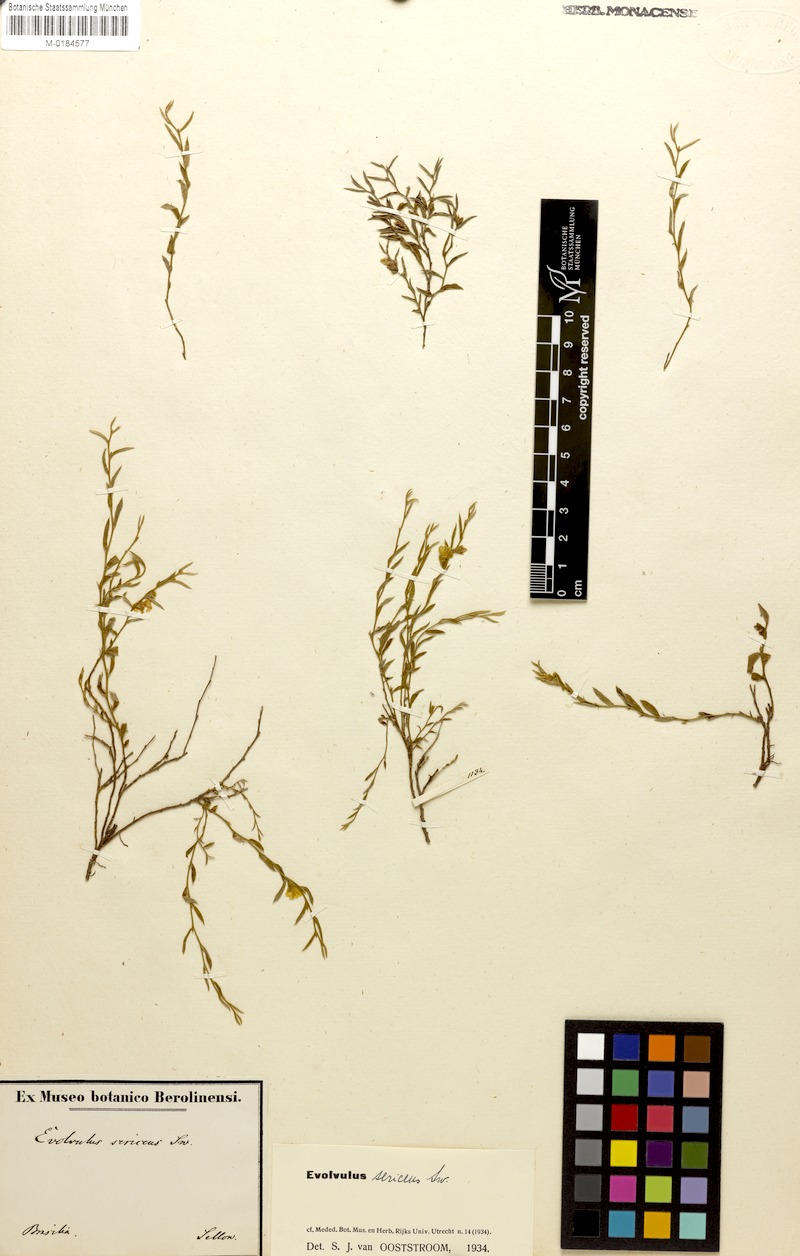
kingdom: Plantae
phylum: Tracheophyta
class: Magnoliopsida
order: Solanales
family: Convolvulaceae
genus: Evolvulus
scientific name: Evolvulus sericeus
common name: Blue dots
